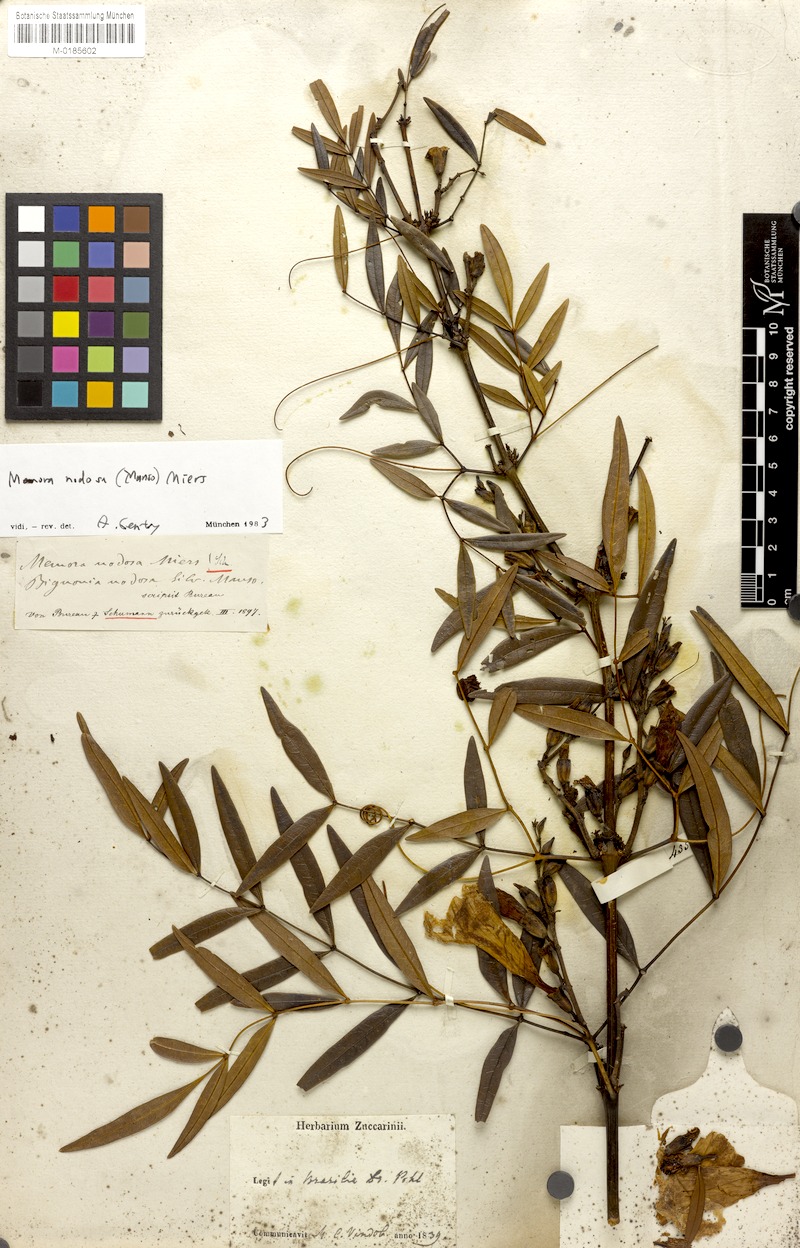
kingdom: Plantae
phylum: Tracheophyta
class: Magnoliopsida
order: Lamiales
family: Bignoniaceae
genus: Adenocalymma
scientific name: Adenocalymma nodosum
